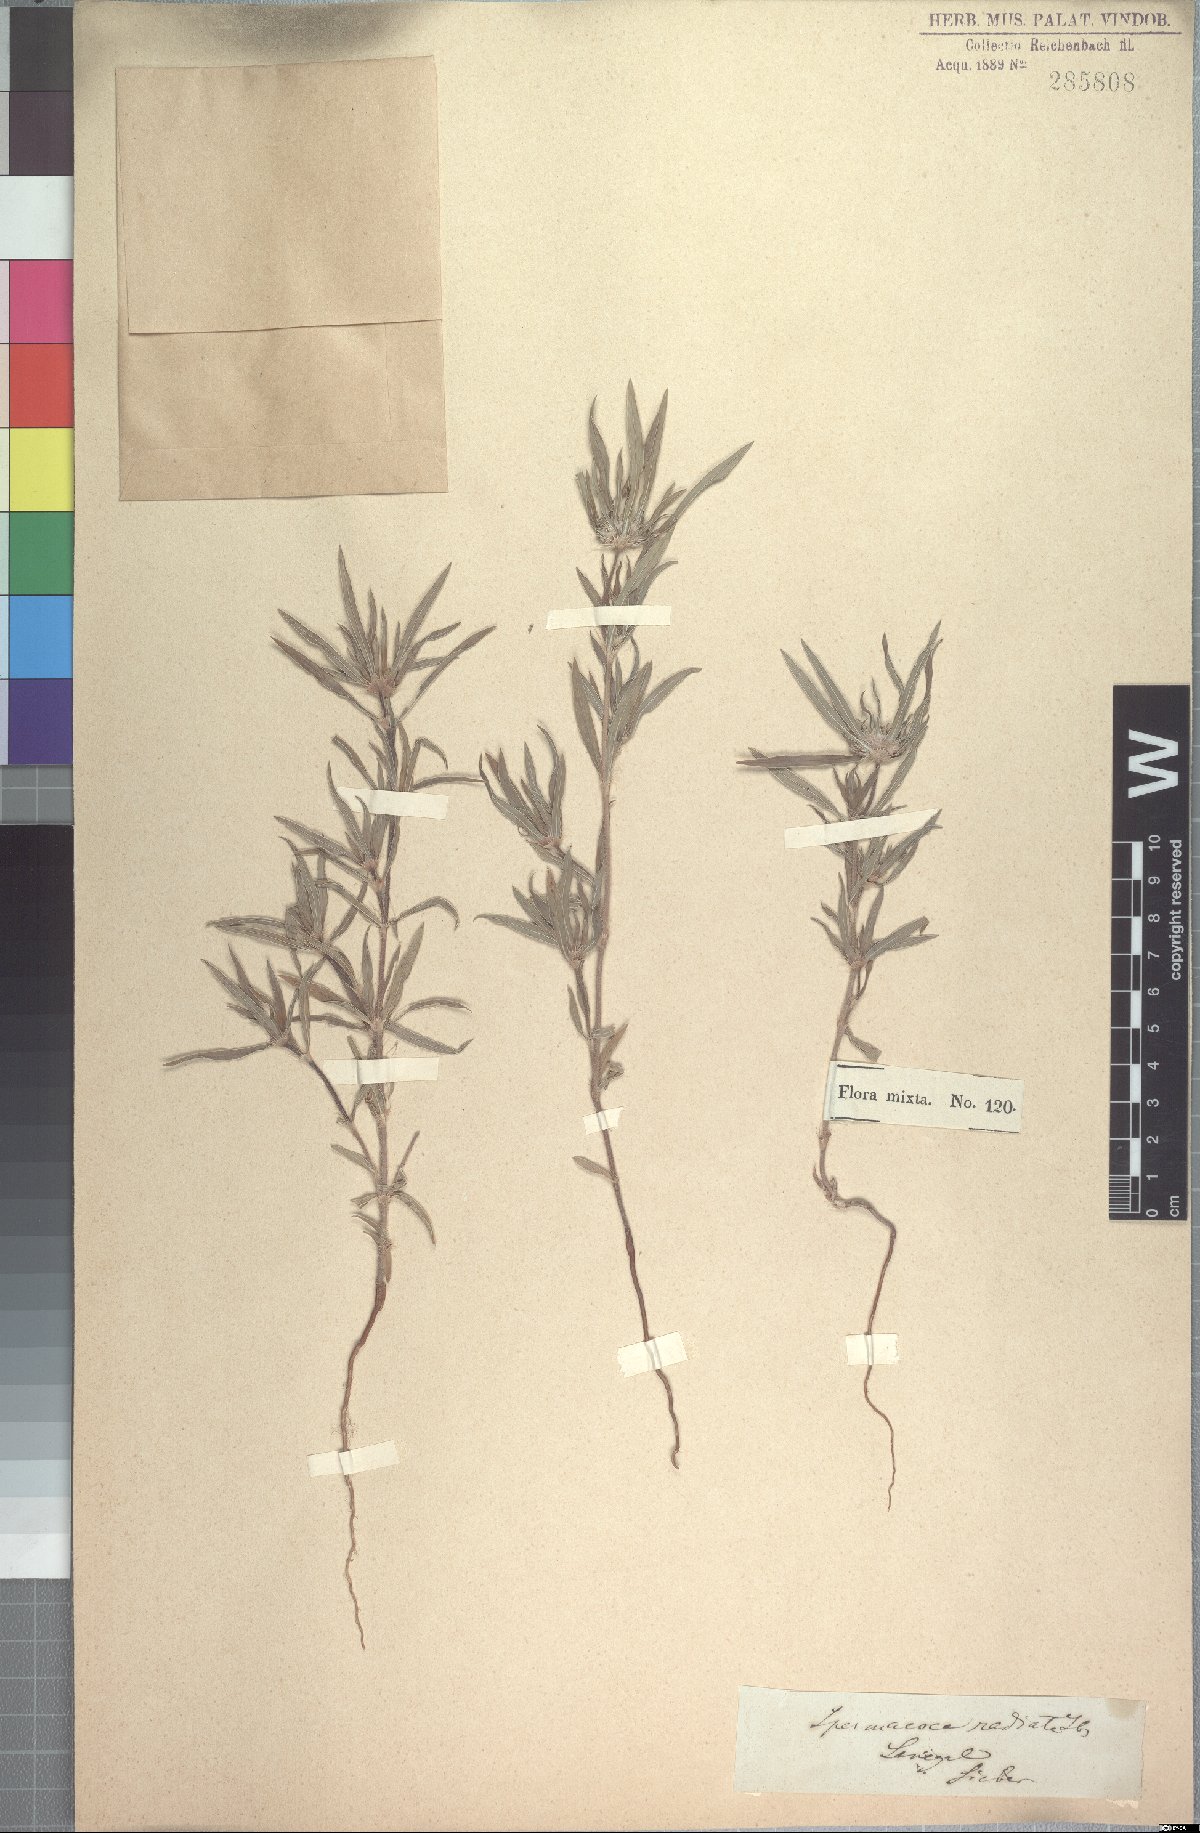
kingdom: Plantae
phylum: Tracheophyta
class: Magnoliopsida
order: Gentianales
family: Rubiaceae
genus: Spermacoce
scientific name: Spermacoce radiata
